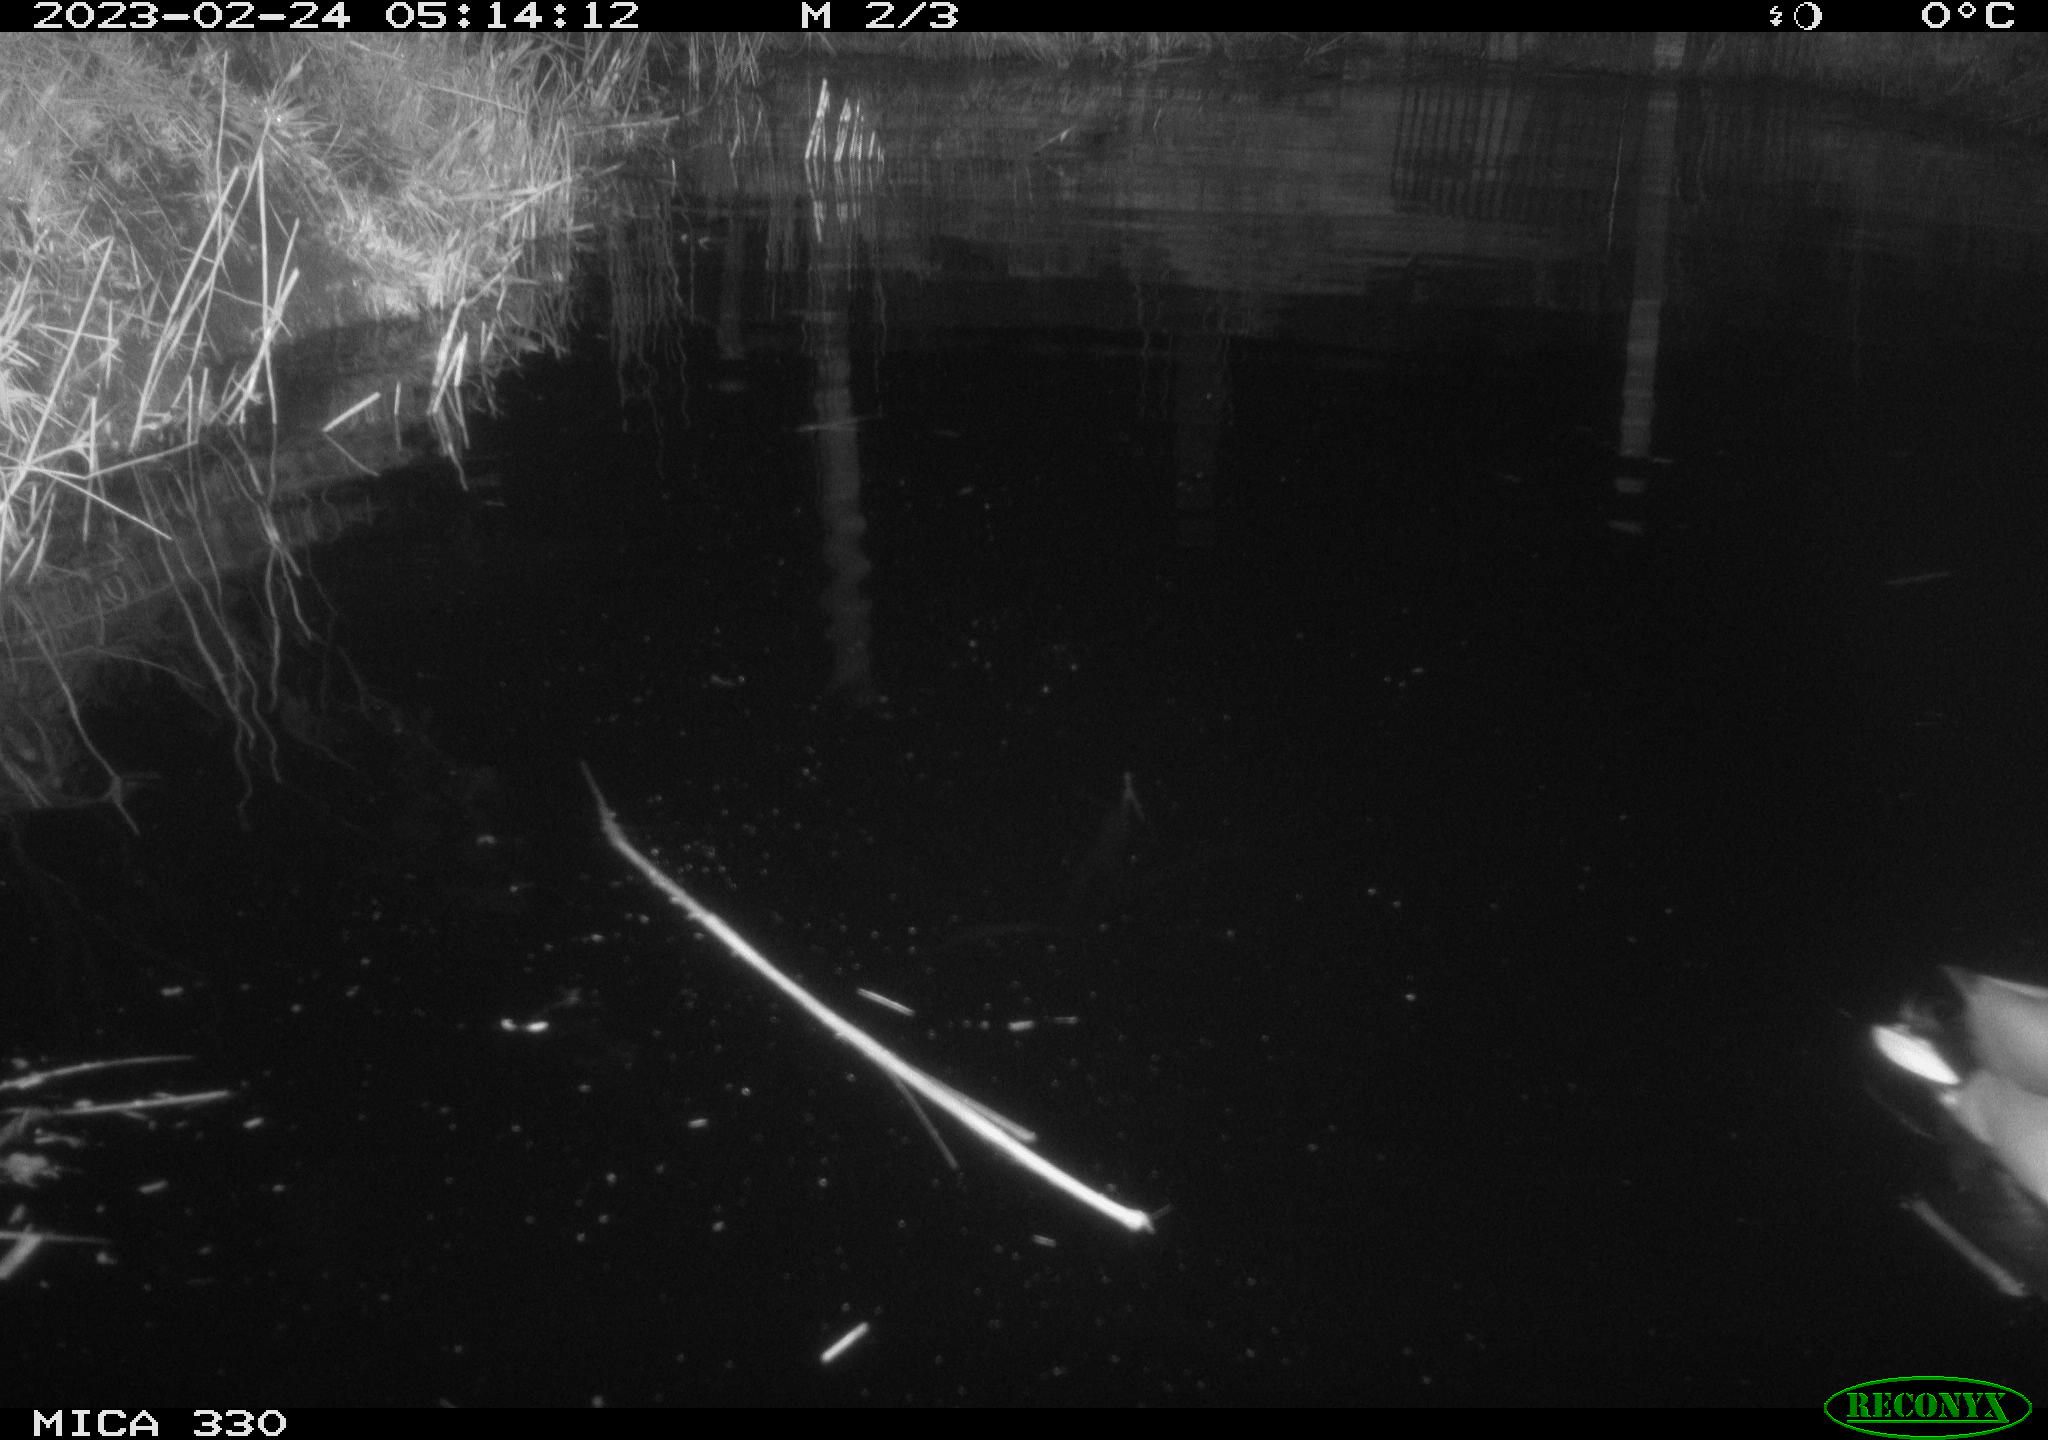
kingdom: Animalia
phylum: Chordata
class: Aves
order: Anseriformes
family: Anatidae
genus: Anas
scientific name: Anas
